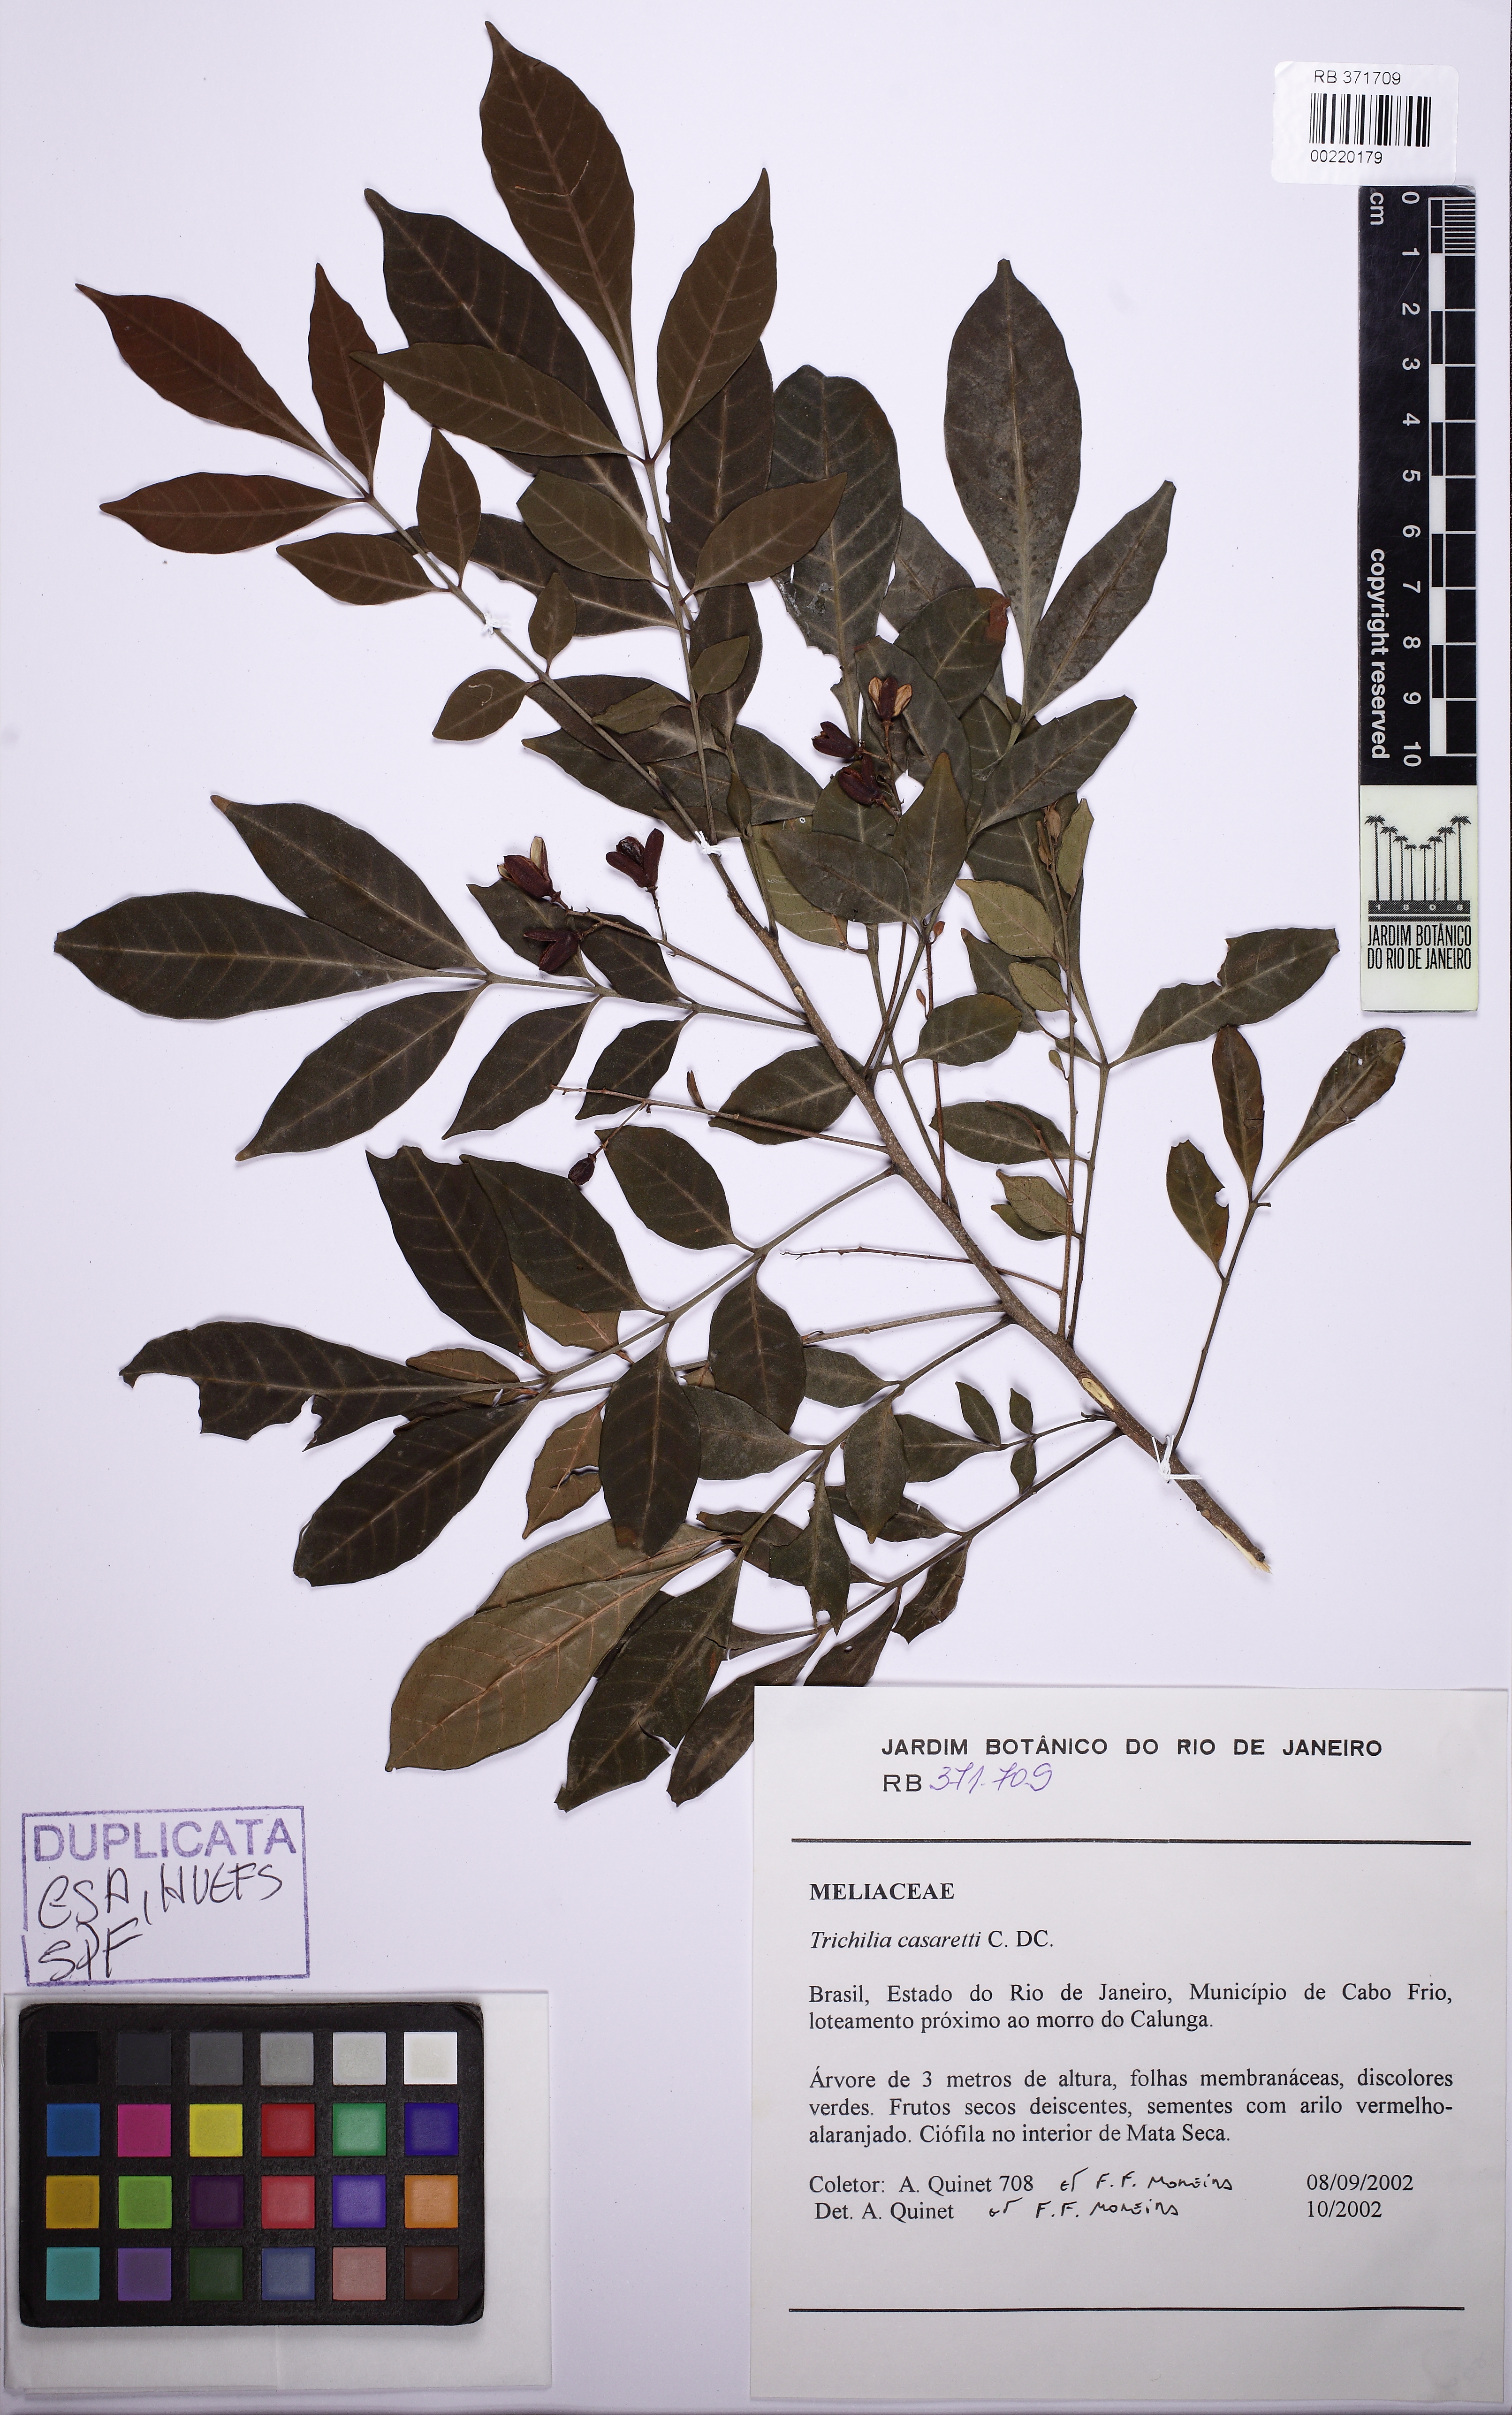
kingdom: Plantae
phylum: Tracheophyta
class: Magnoliopsida
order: Sapindales
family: Meliaceae
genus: Trichilia
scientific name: Trichilia casaretti
